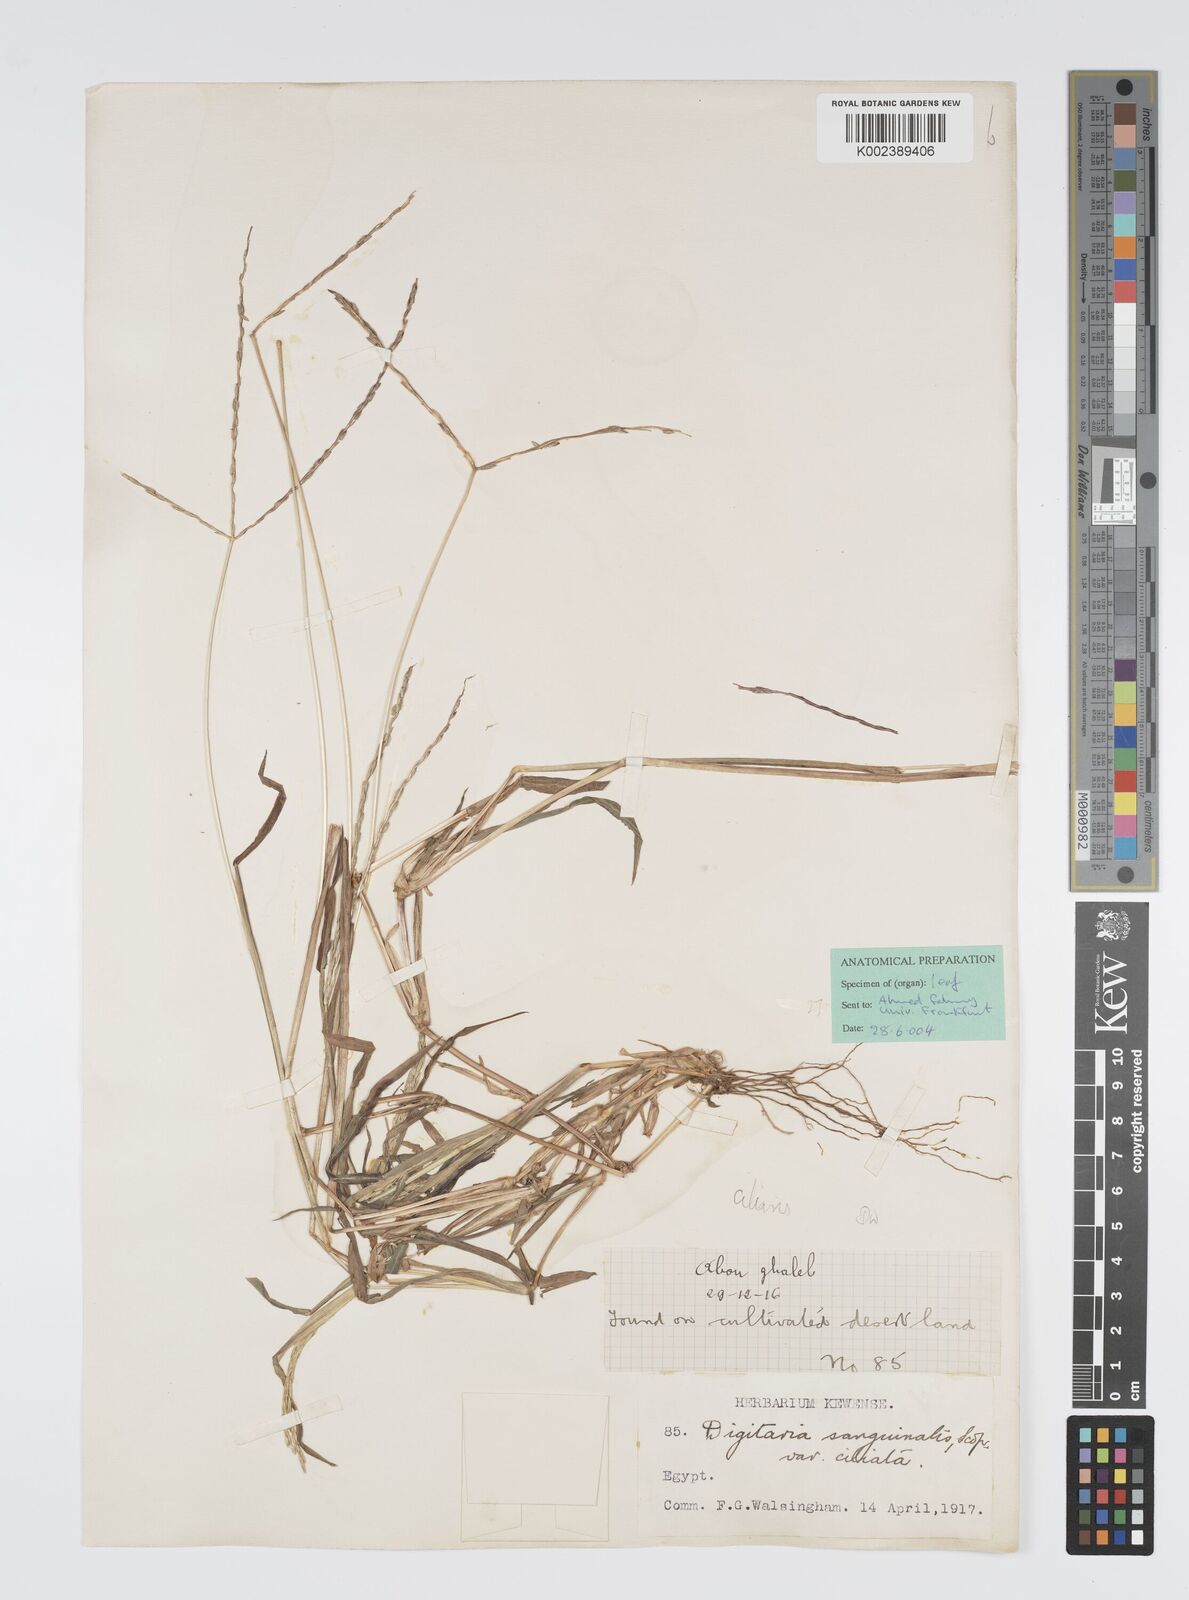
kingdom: Plantae
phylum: Tracheophyta
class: Liliopsida
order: Poales
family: Poaceae
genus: Digitaria
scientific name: Digitaria sanguinalis
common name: Hairy crabgrass
